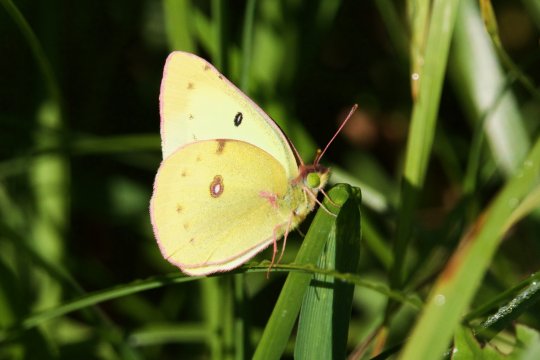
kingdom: Animalia
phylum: Arthropoda
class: Insecta
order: Lepidoptera
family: Pieridae
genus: Colias
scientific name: Colias philodice
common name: Clouded Sulphur
